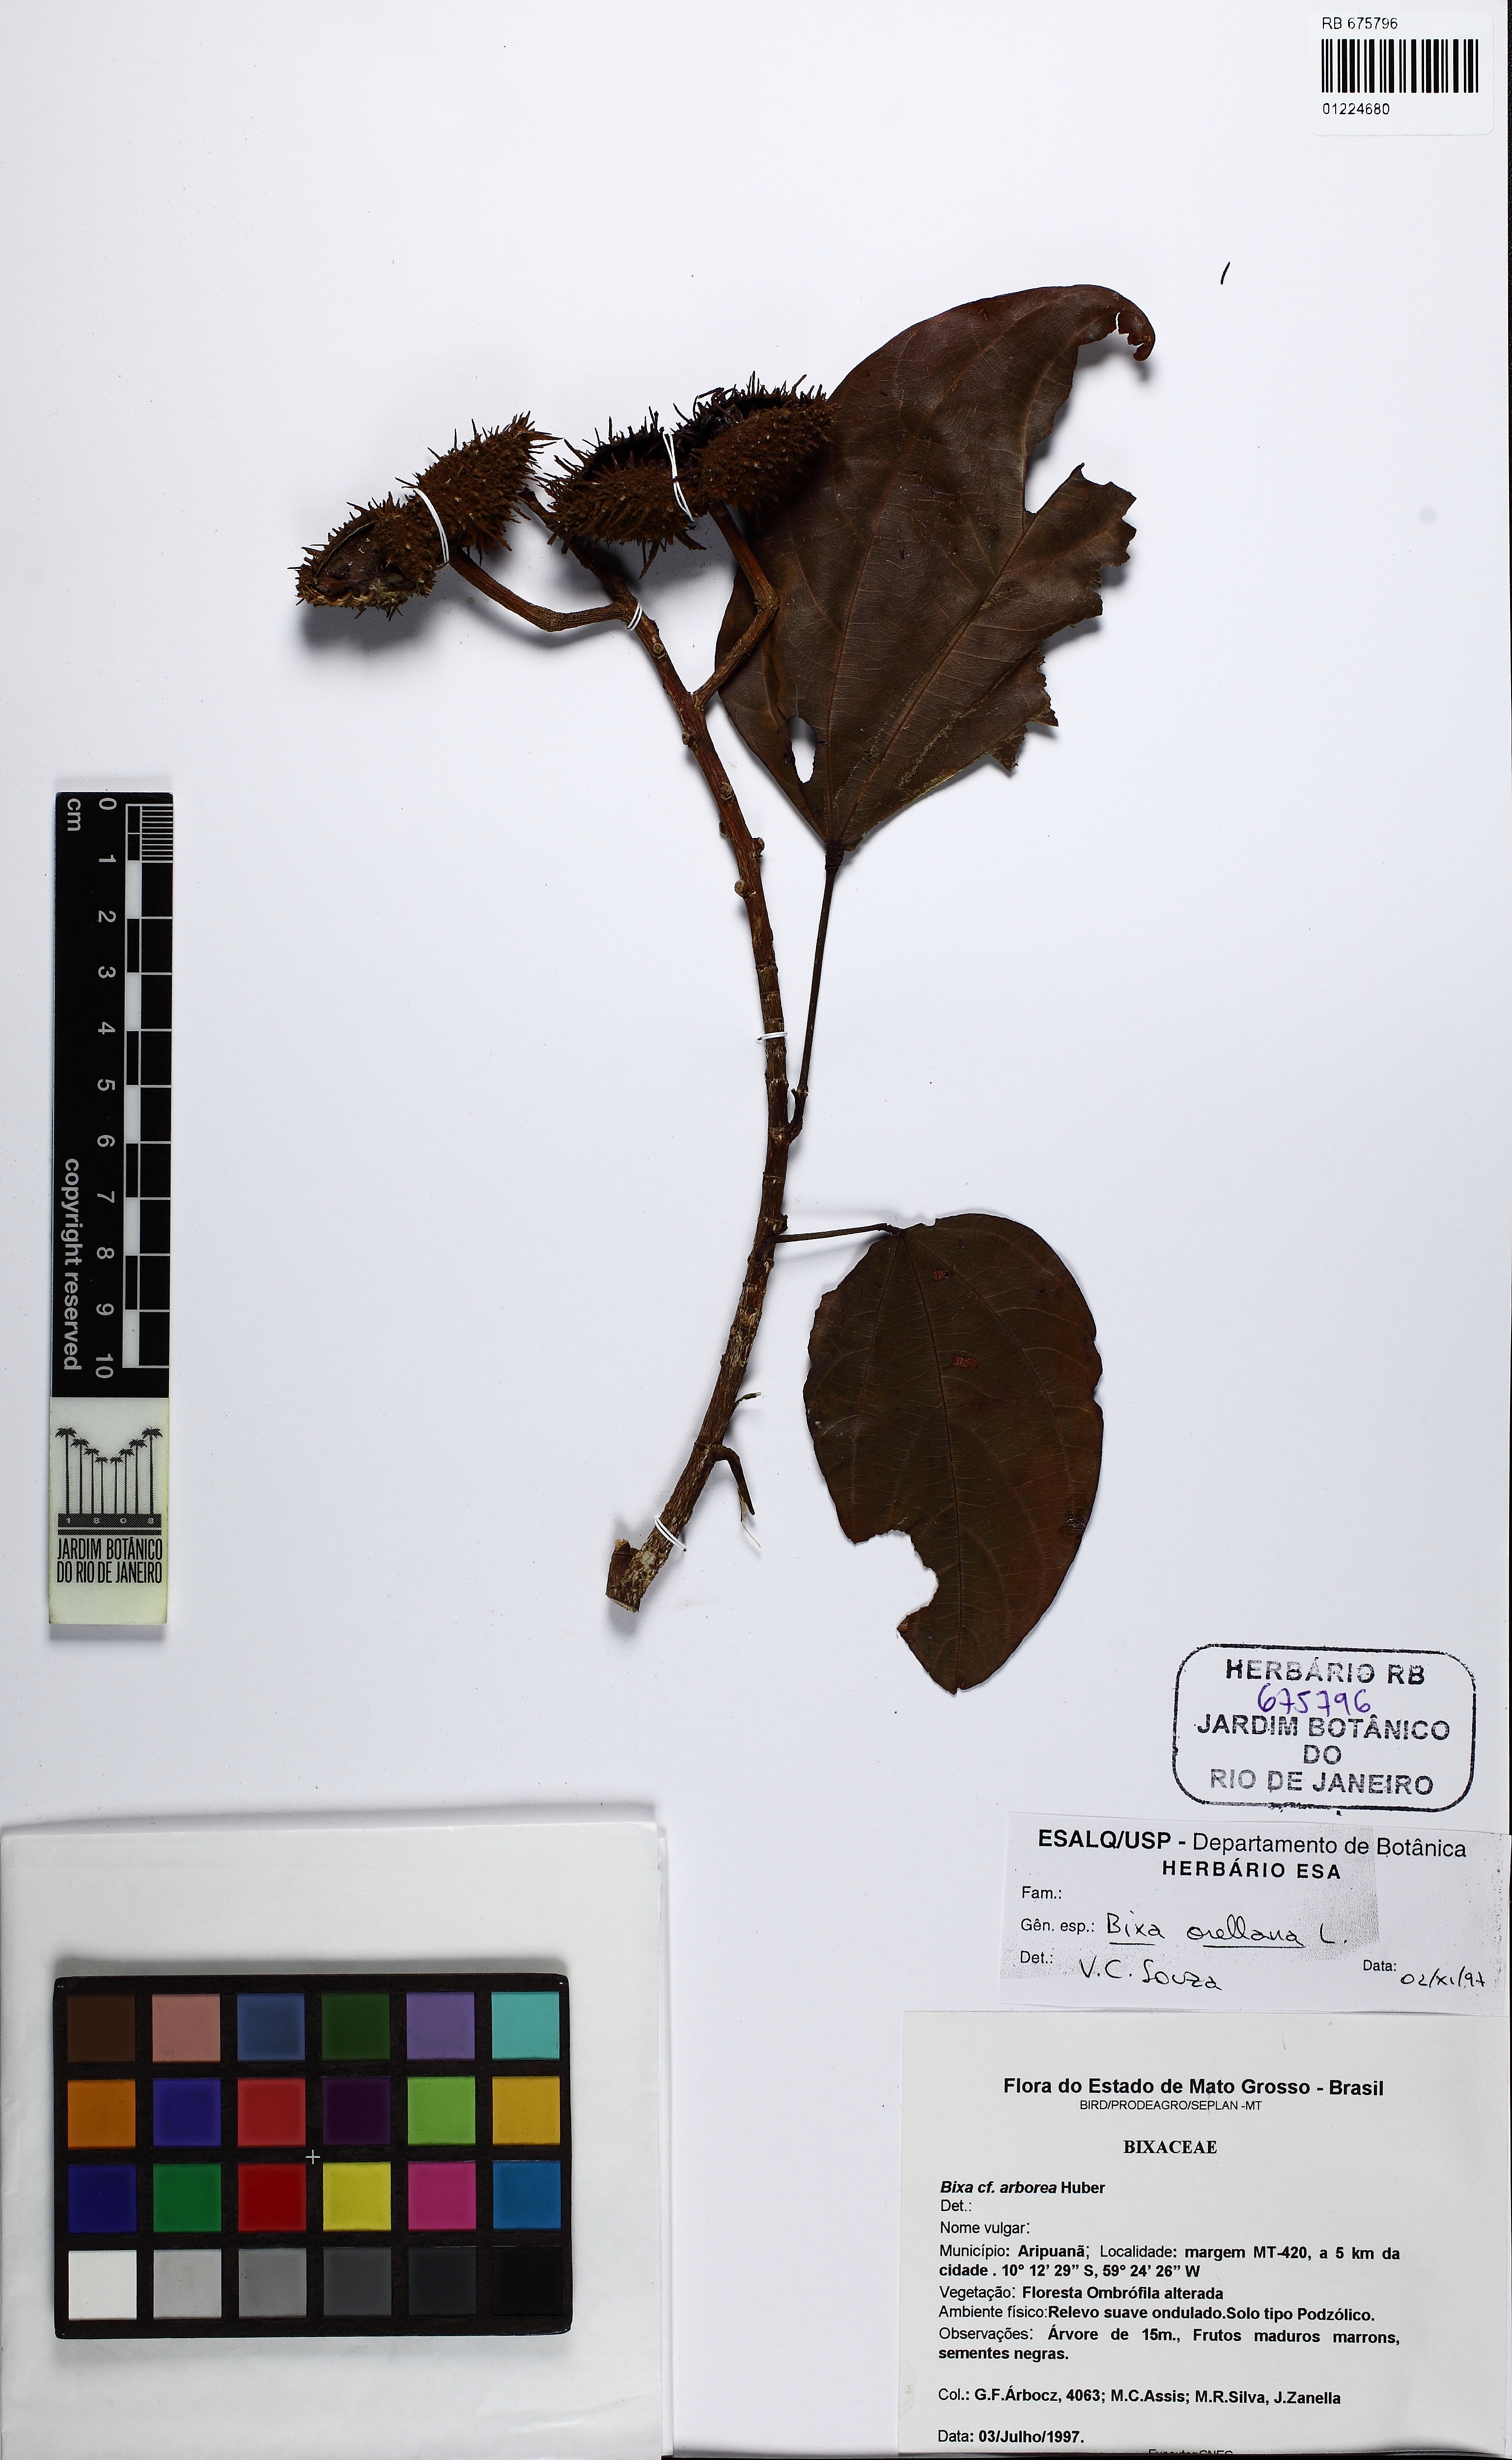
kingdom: Plantae
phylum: Tracheophyta
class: Magnoliopsida
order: Malvales
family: Bixaceae
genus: Bixa
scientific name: Bixa orellana
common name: Lipsticktree
